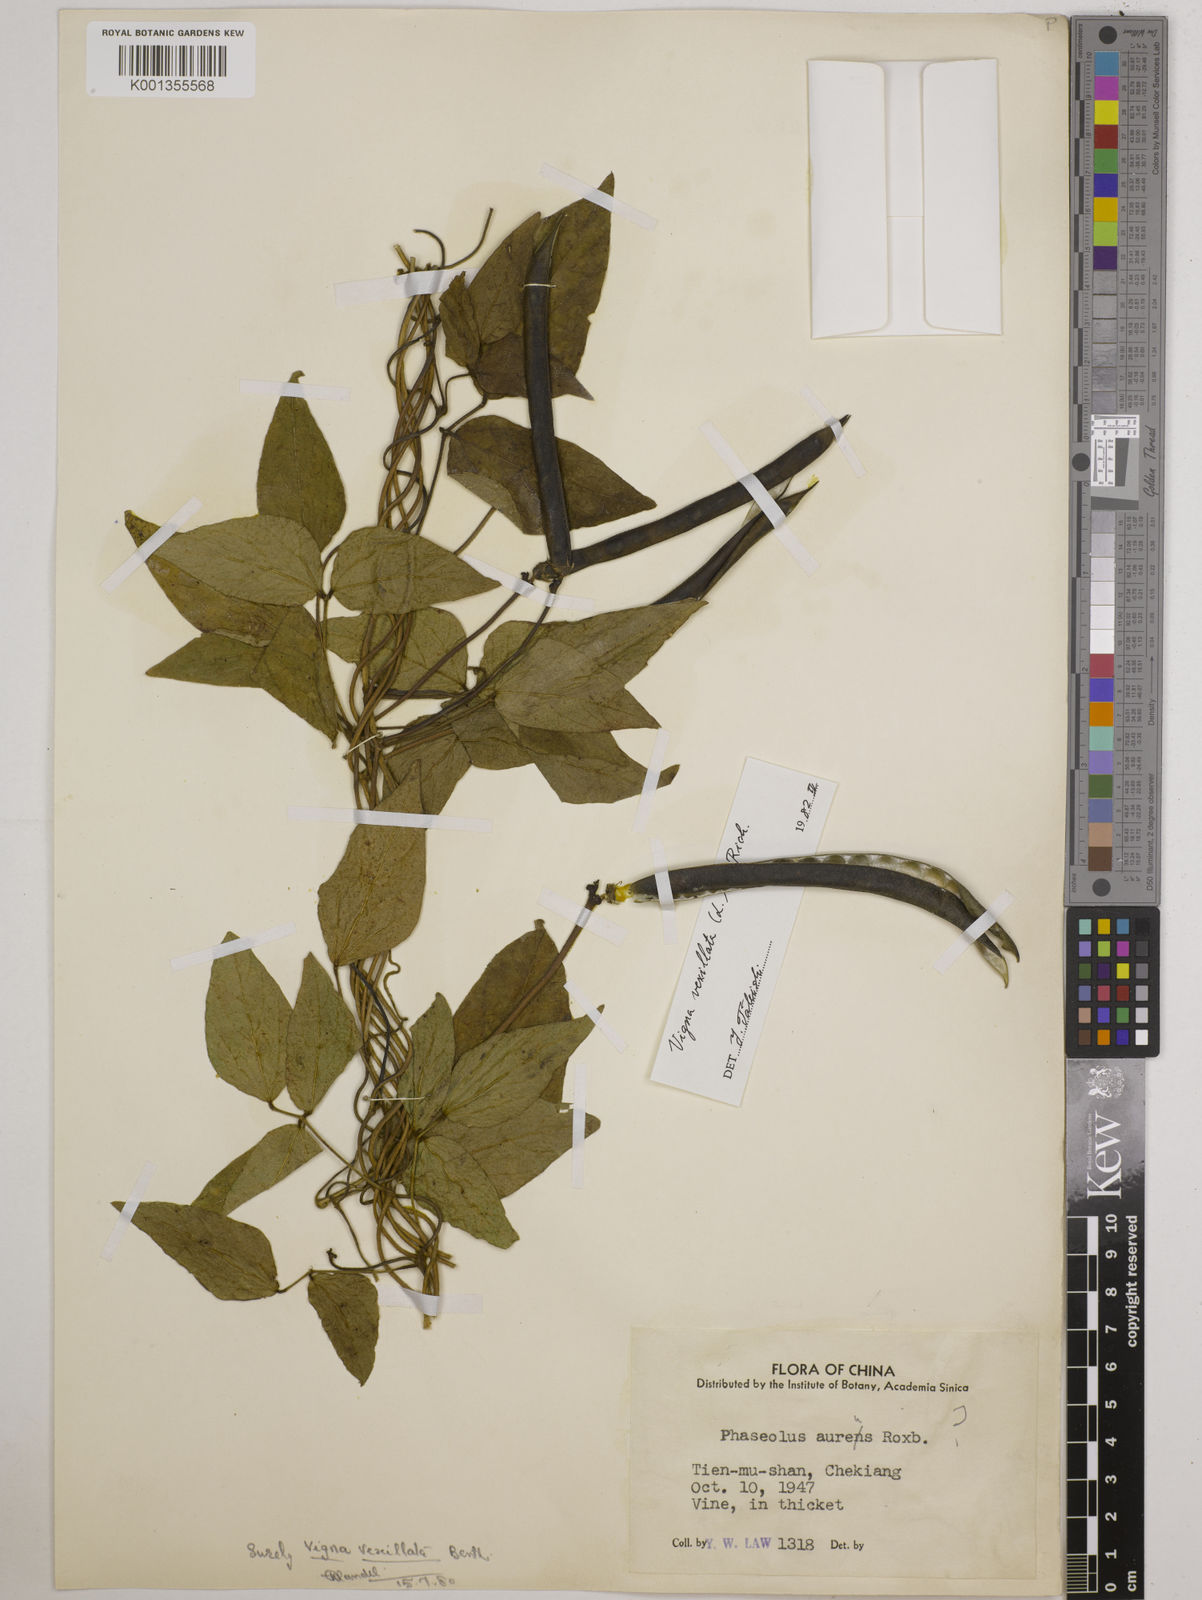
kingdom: Plantae
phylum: Tracheophyta
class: Magnoliopsida
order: Fabales
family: Fabaceae
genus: Vigna
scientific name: Vigna vexillata
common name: Zombi pea
